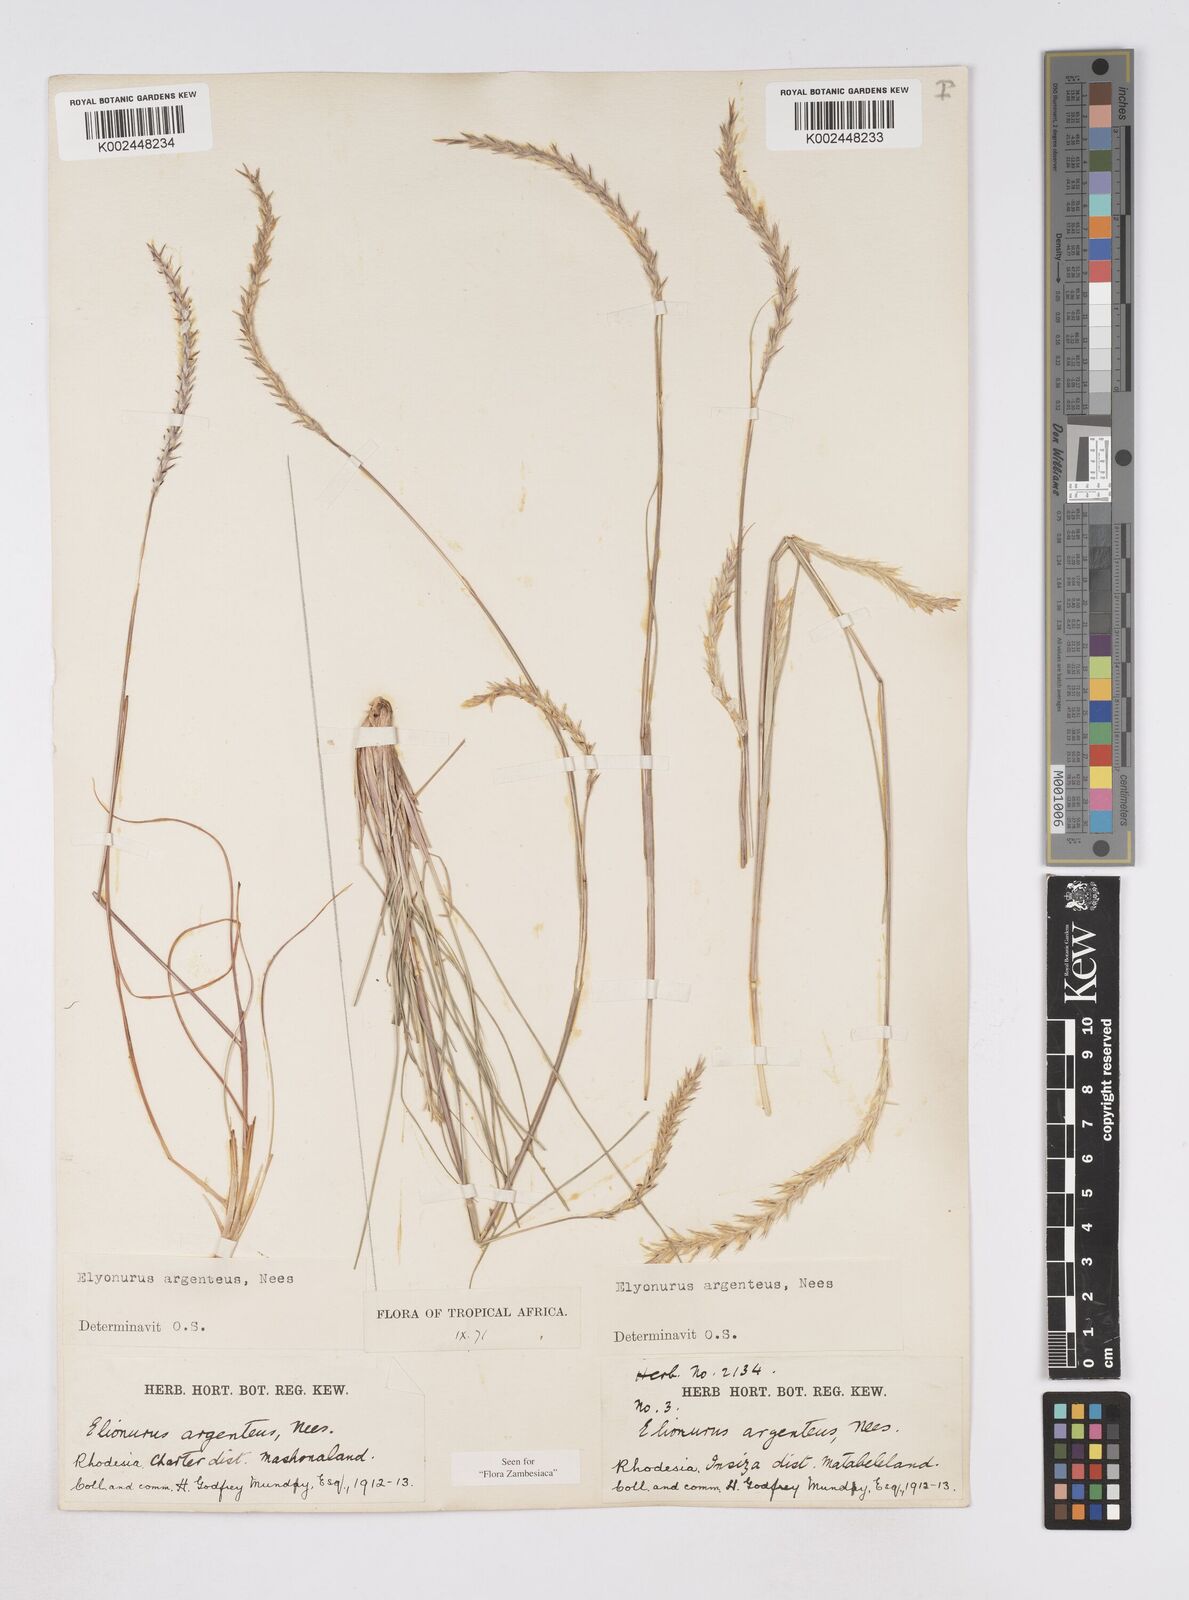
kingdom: Plantae
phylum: Tracheophyta
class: Liliopsida
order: Poales
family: Poaceae
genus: Elionurus
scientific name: Elionurus muticus
